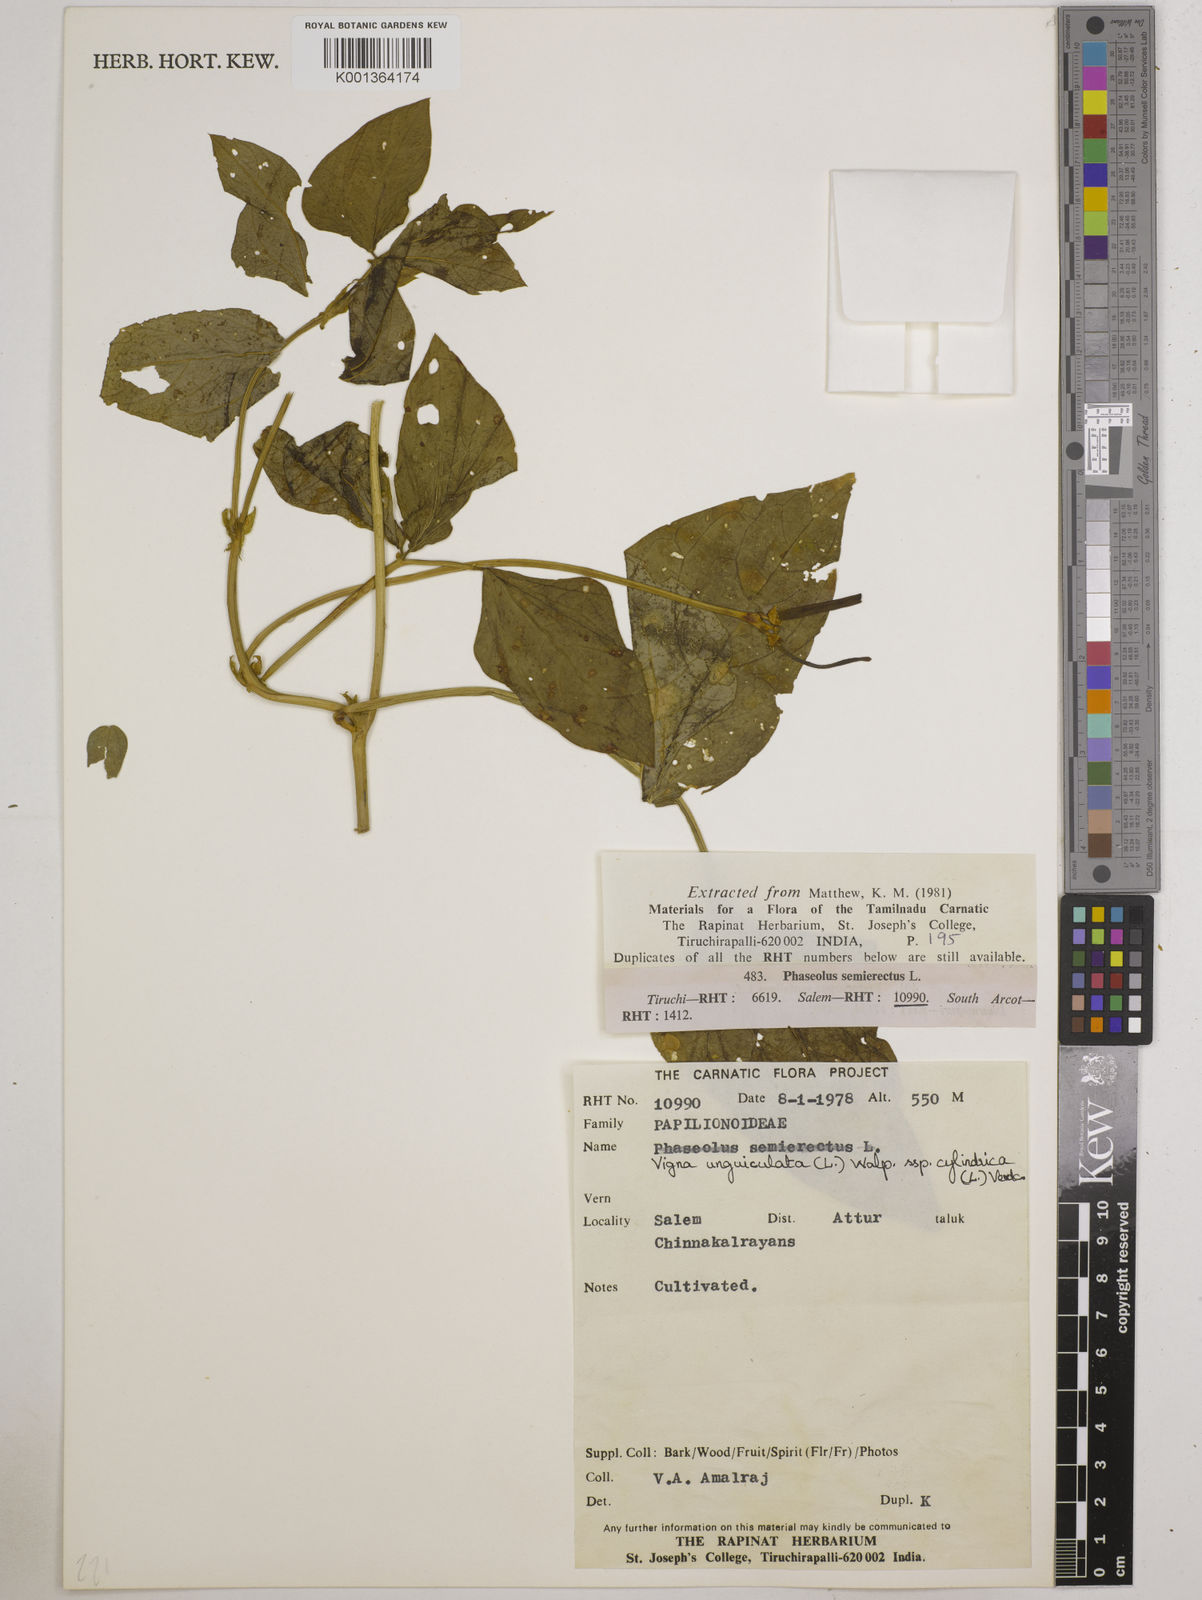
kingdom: Plantae
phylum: Tracheophyta
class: Magnoliopsida
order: Fabales
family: Fabaceae
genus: Vigna
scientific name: Vigna
